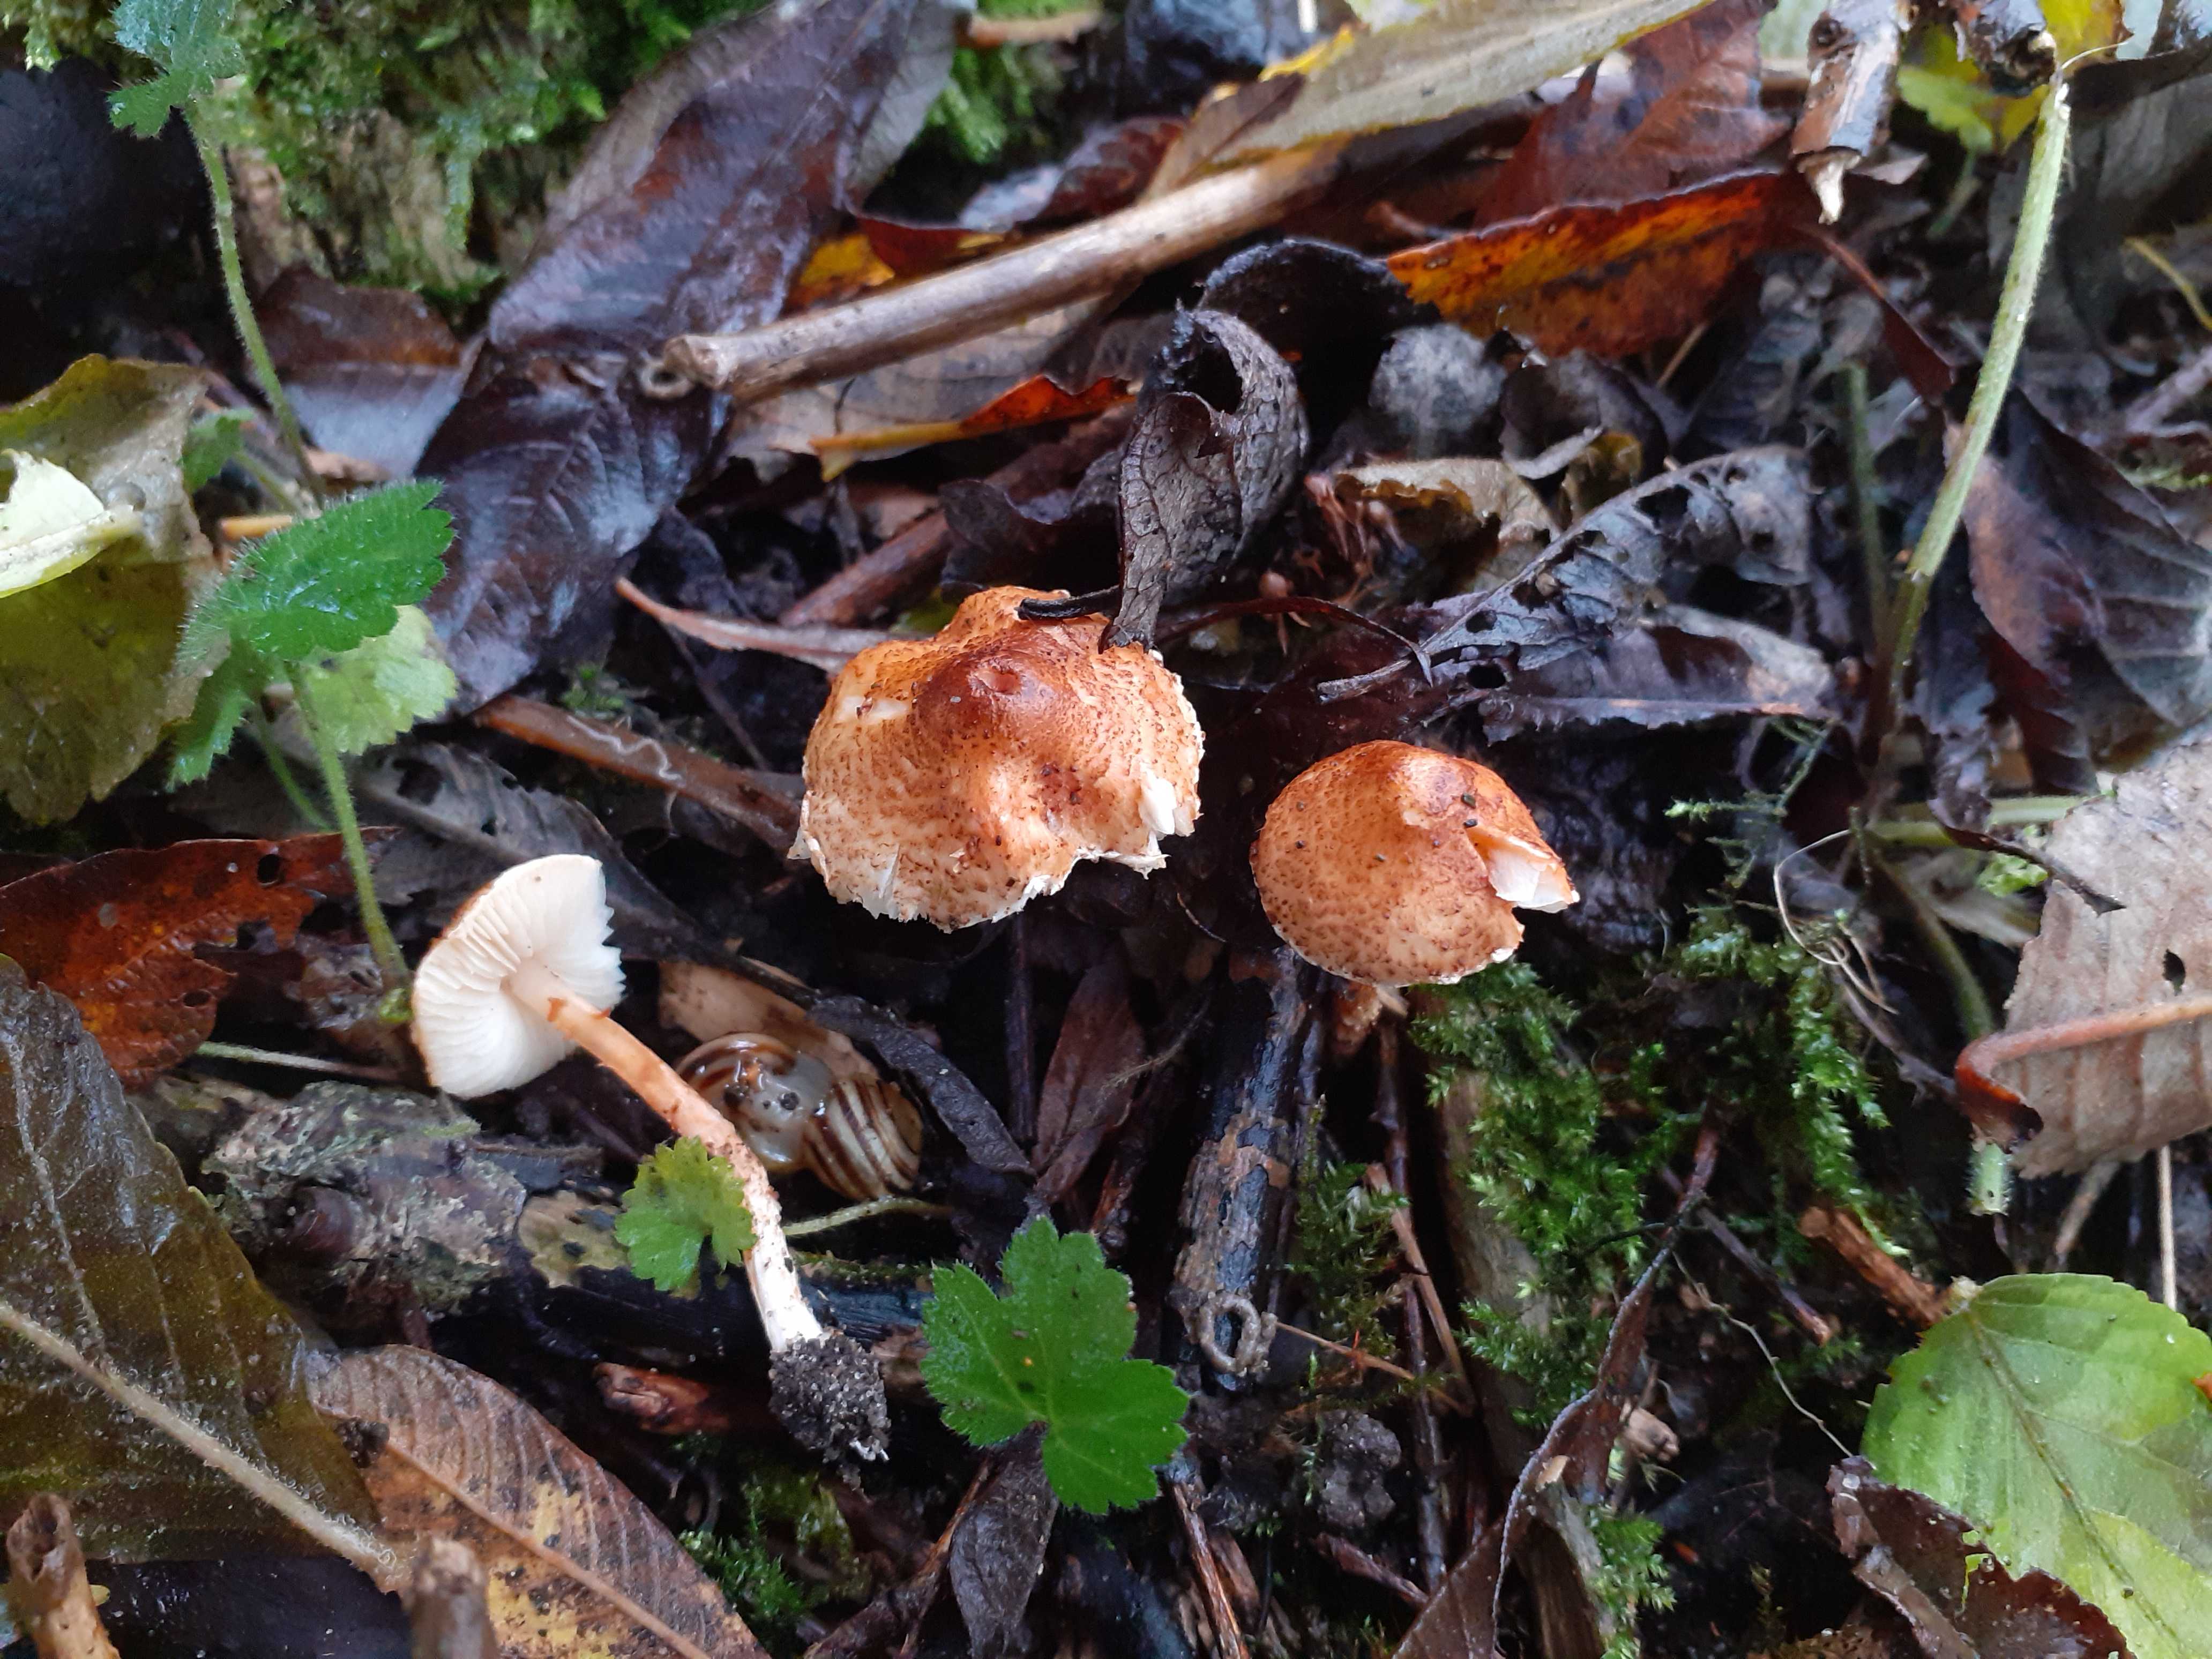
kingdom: Fungi
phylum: Basidiomycota
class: Agaricomycetes
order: Agaricales
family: Agaricaceae
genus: Lepiota
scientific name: Lepiota castanea
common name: kastaniebrun parasolhat
